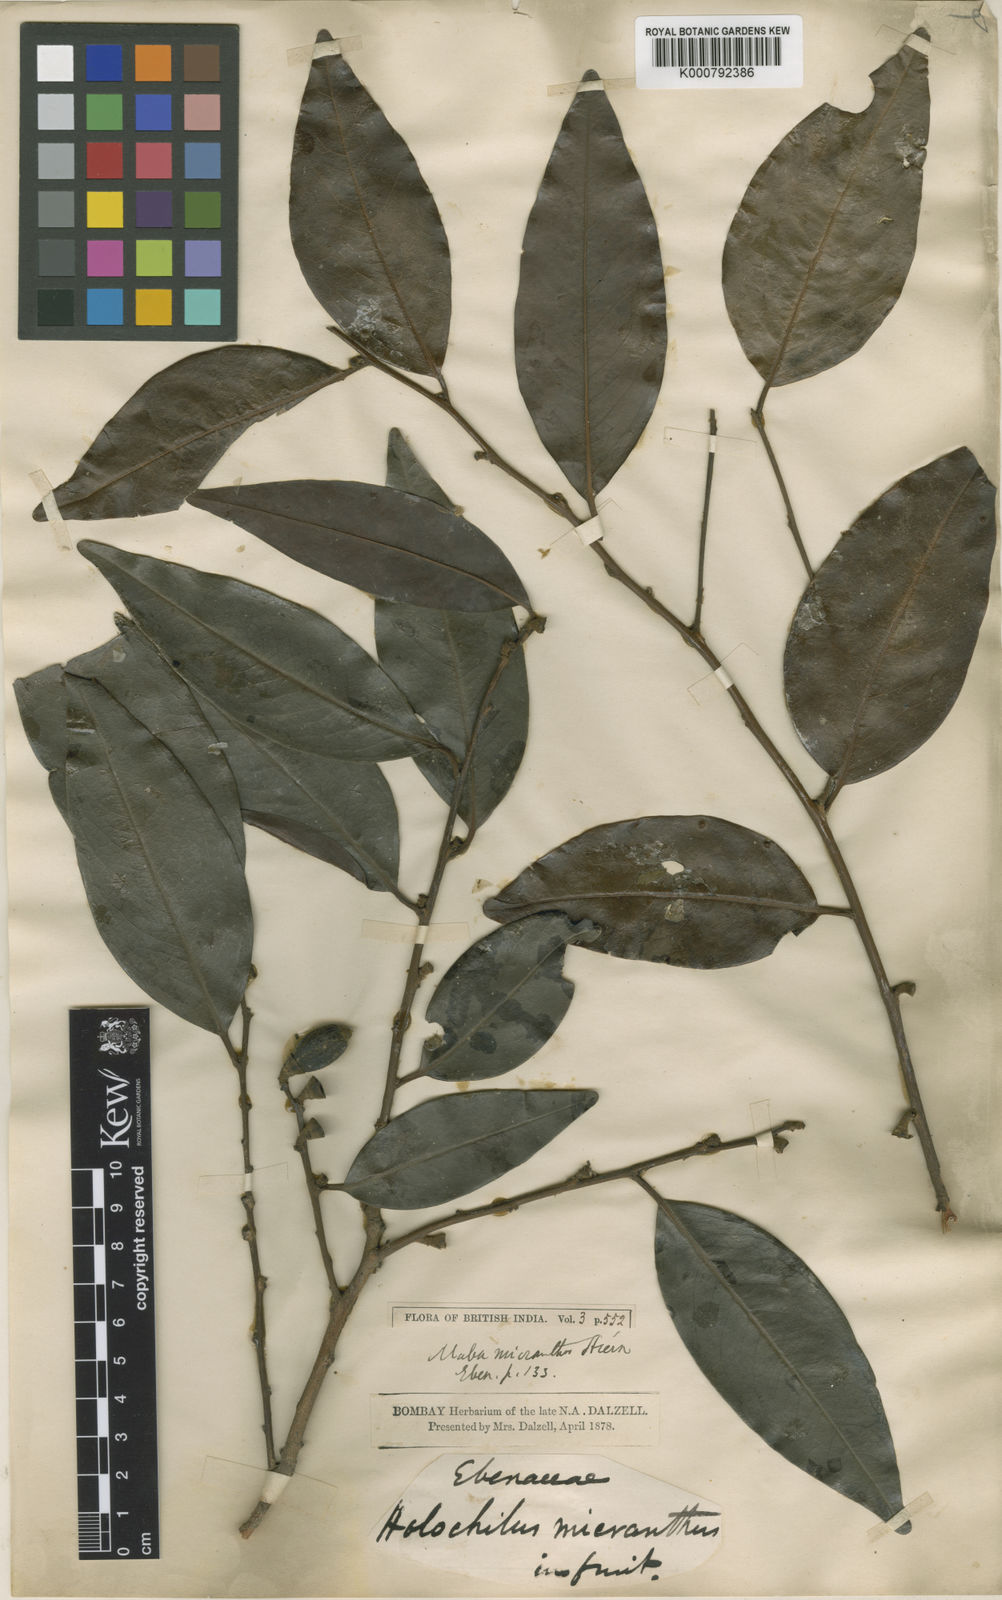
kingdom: Plantae
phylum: Tracheophyta
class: Magnoliopsida
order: Ericales
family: Ebenaceae
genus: Diospyros
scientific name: Diospyros micrantha
